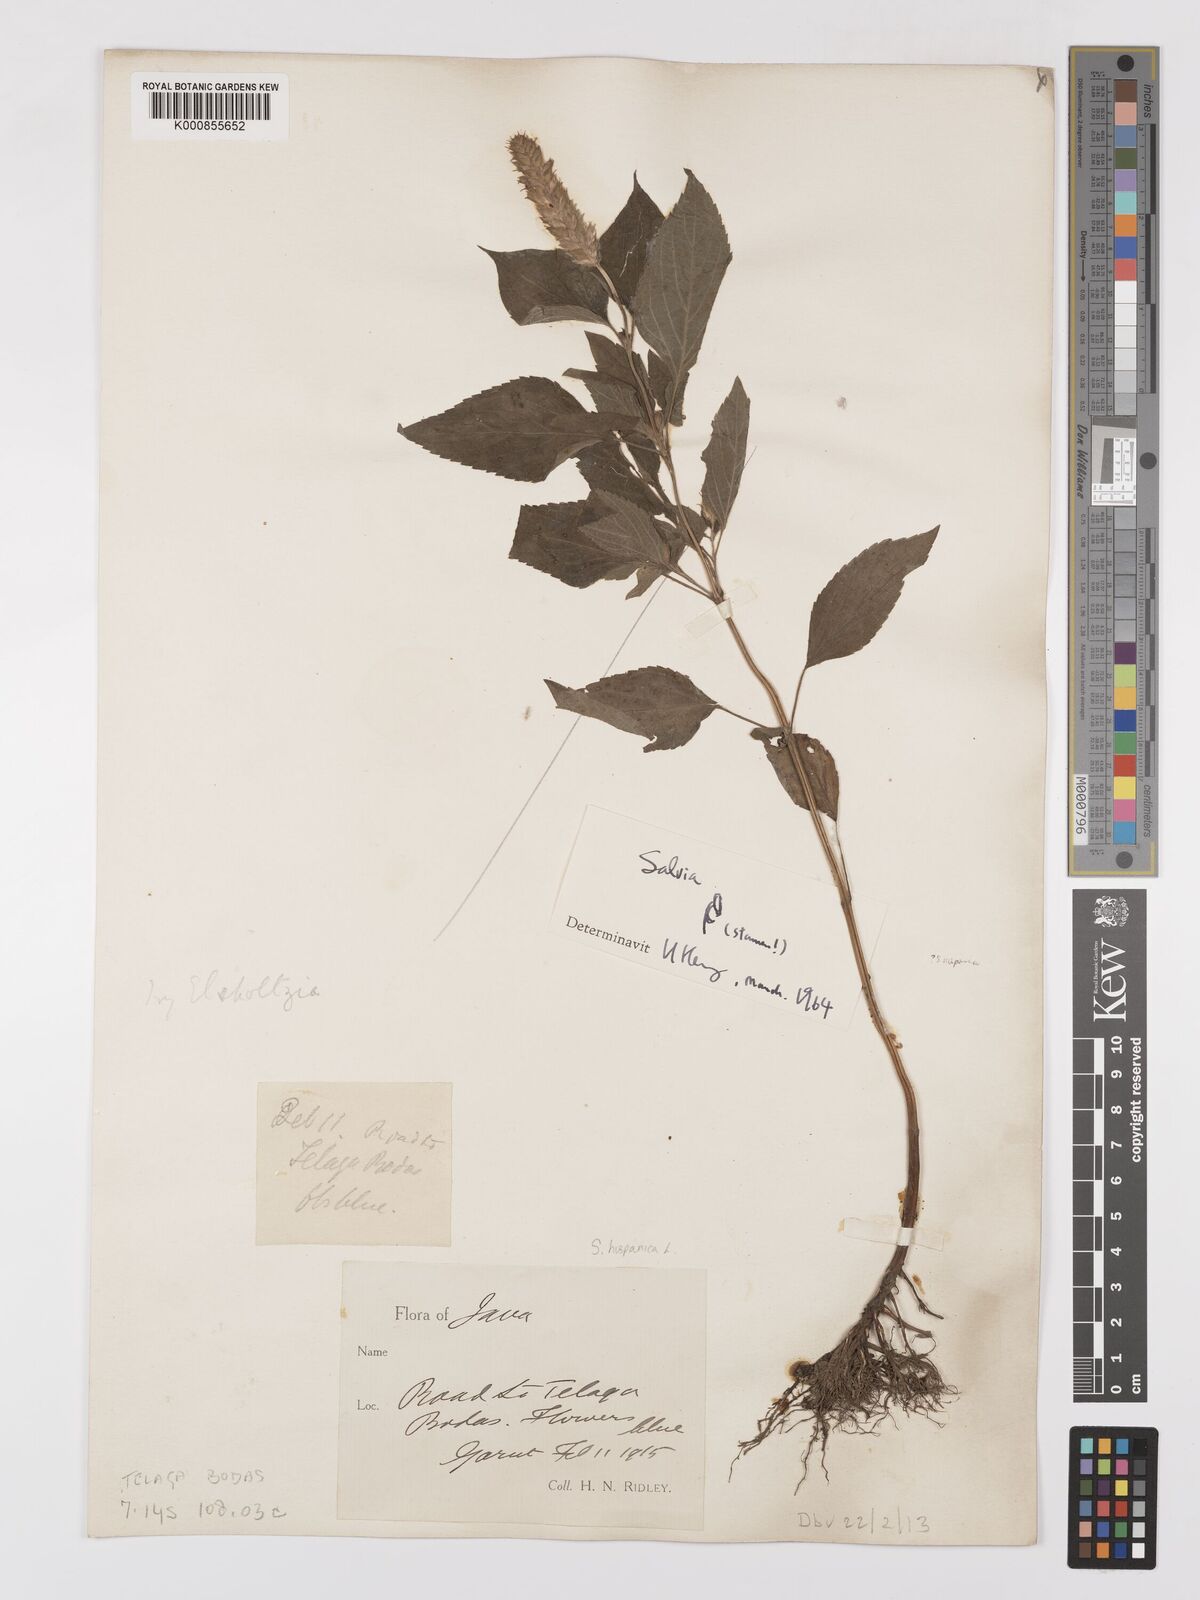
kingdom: Plantae
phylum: Tracheophyta
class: Magnoliopsida
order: Lamiales
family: Lamiaceae
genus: Salvia
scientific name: Salvia hispanica
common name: Chia
